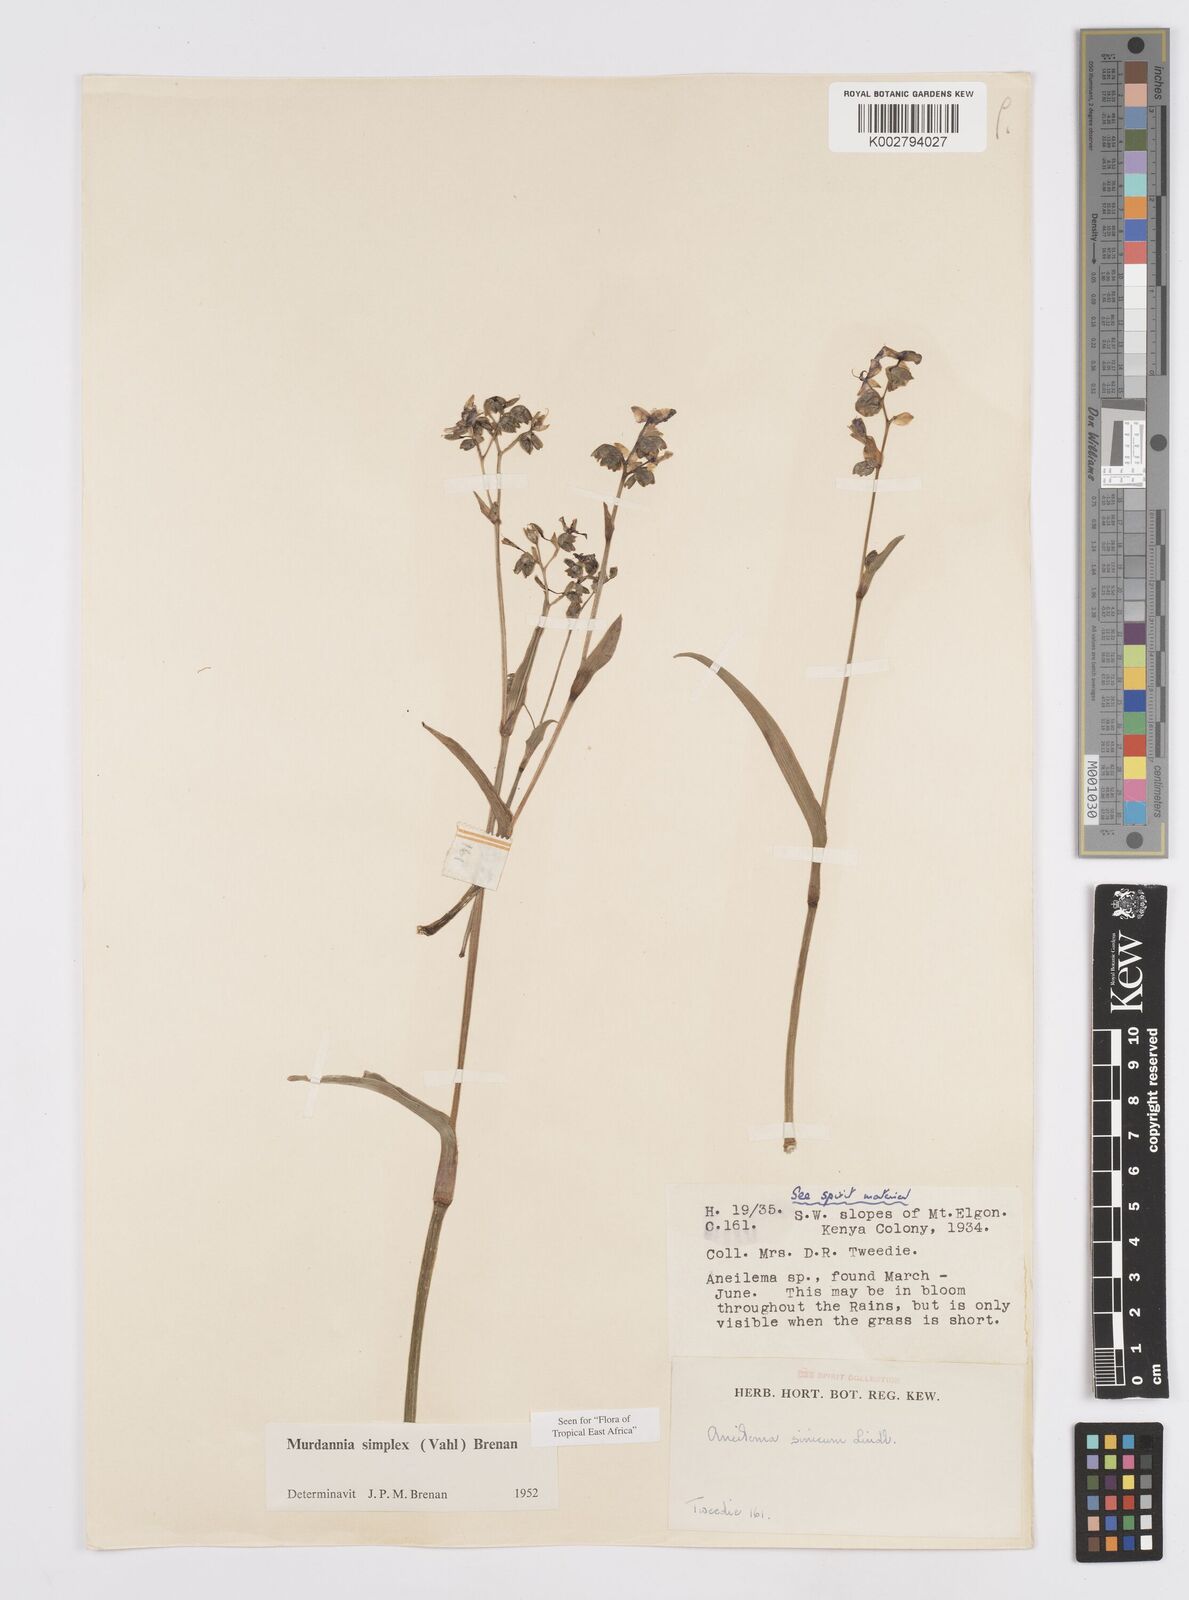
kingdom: Plantae
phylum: Tracheophyta
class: Liliopsida
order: Commelinales
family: Commelinaceae
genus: Murdannia
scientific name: Murdannia simplex
